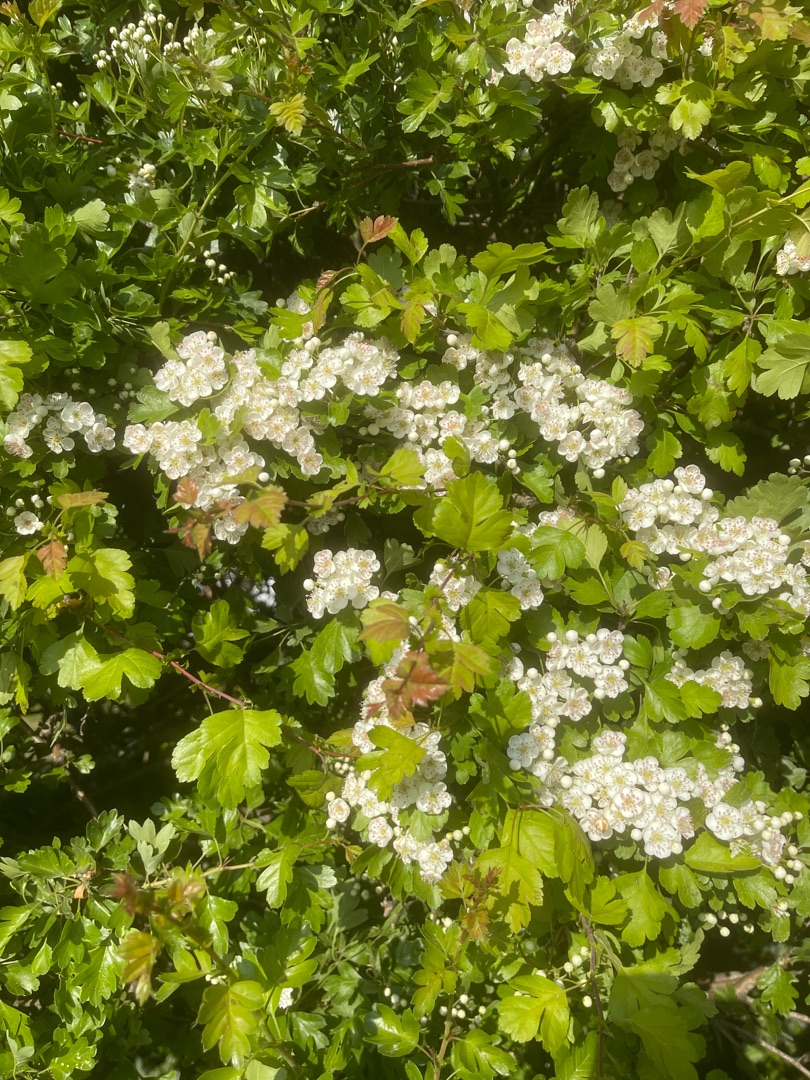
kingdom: Plantae
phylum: Tracheophyta
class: Magnoliopsida
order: Rosales
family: Rosaceae
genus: Crataegus
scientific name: Crataegus monogyna
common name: Engriflet hvidtjørn
